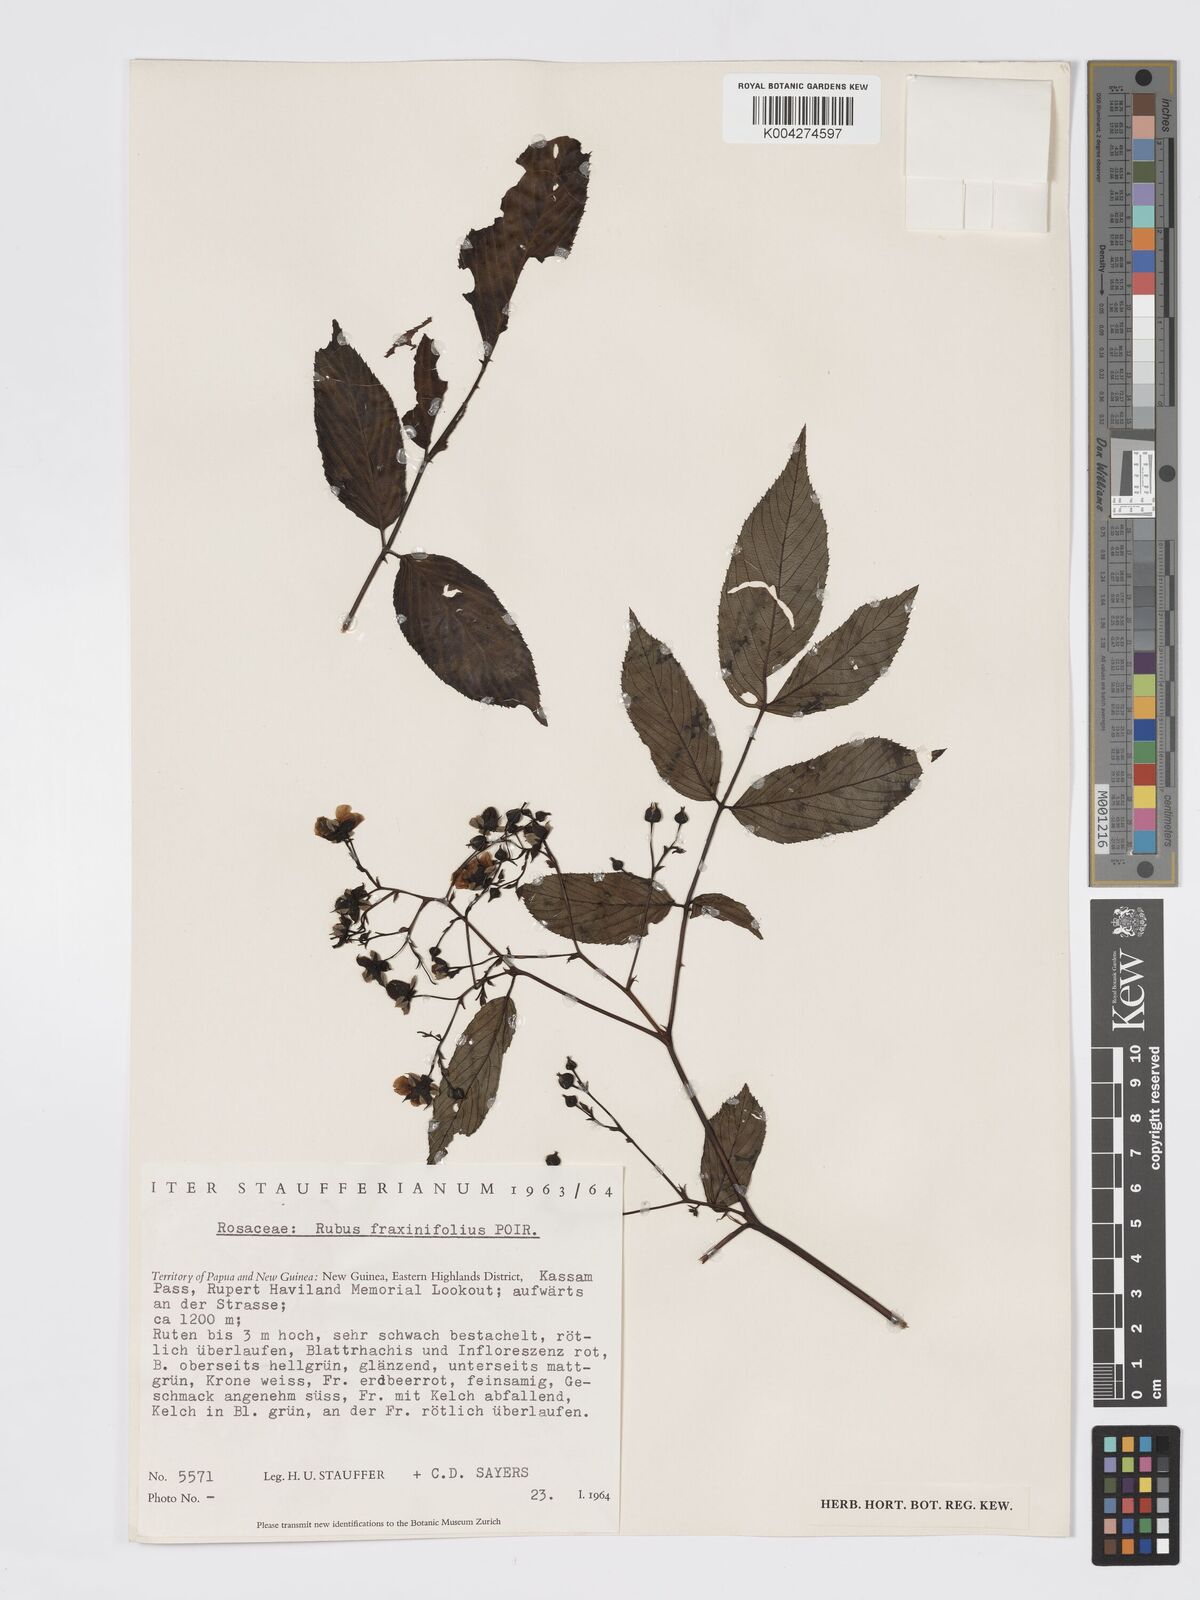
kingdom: Plantae
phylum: Tracheophyta
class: Magnoliopsida
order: Rosales
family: Rosaceae
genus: Rubus
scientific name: Rubus fraxinifolius
